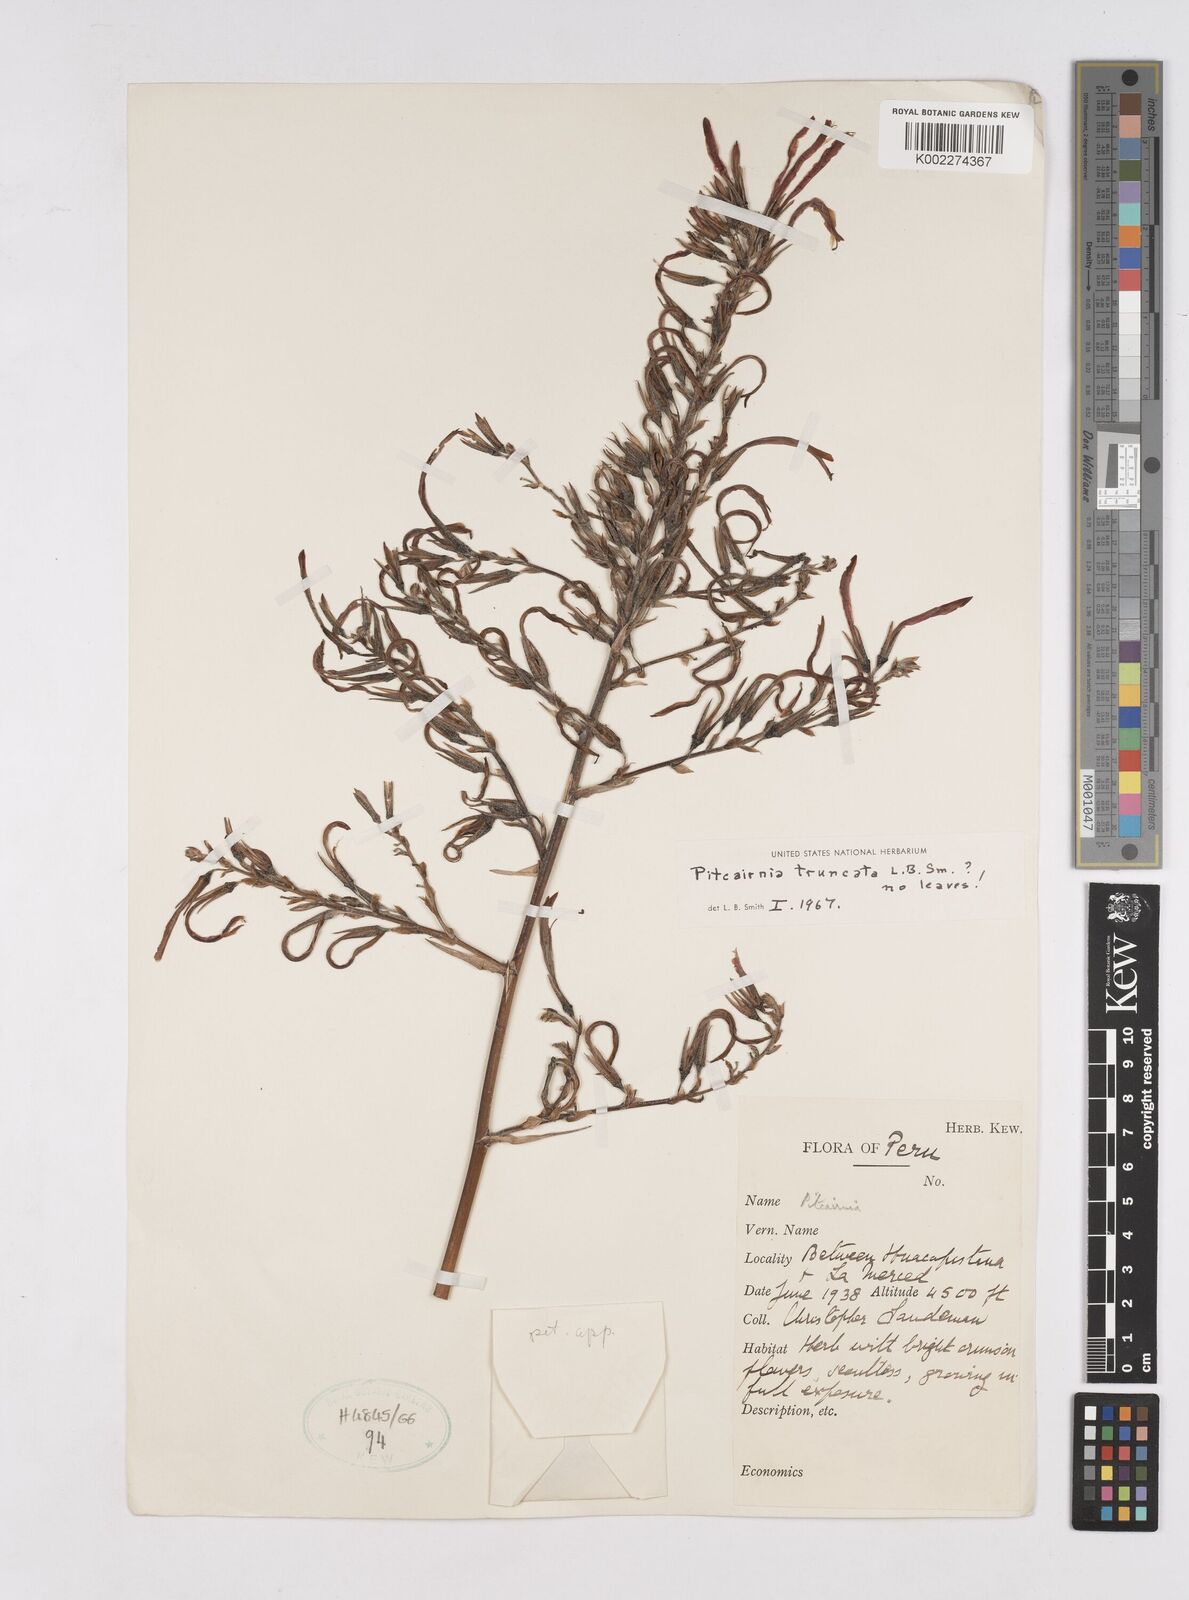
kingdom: Plantae
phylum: Tracheophyta
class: Liliopsida
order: Poales
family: Bromeliaceae
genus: Pitcairnia
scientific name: Pitcairnia truncata
